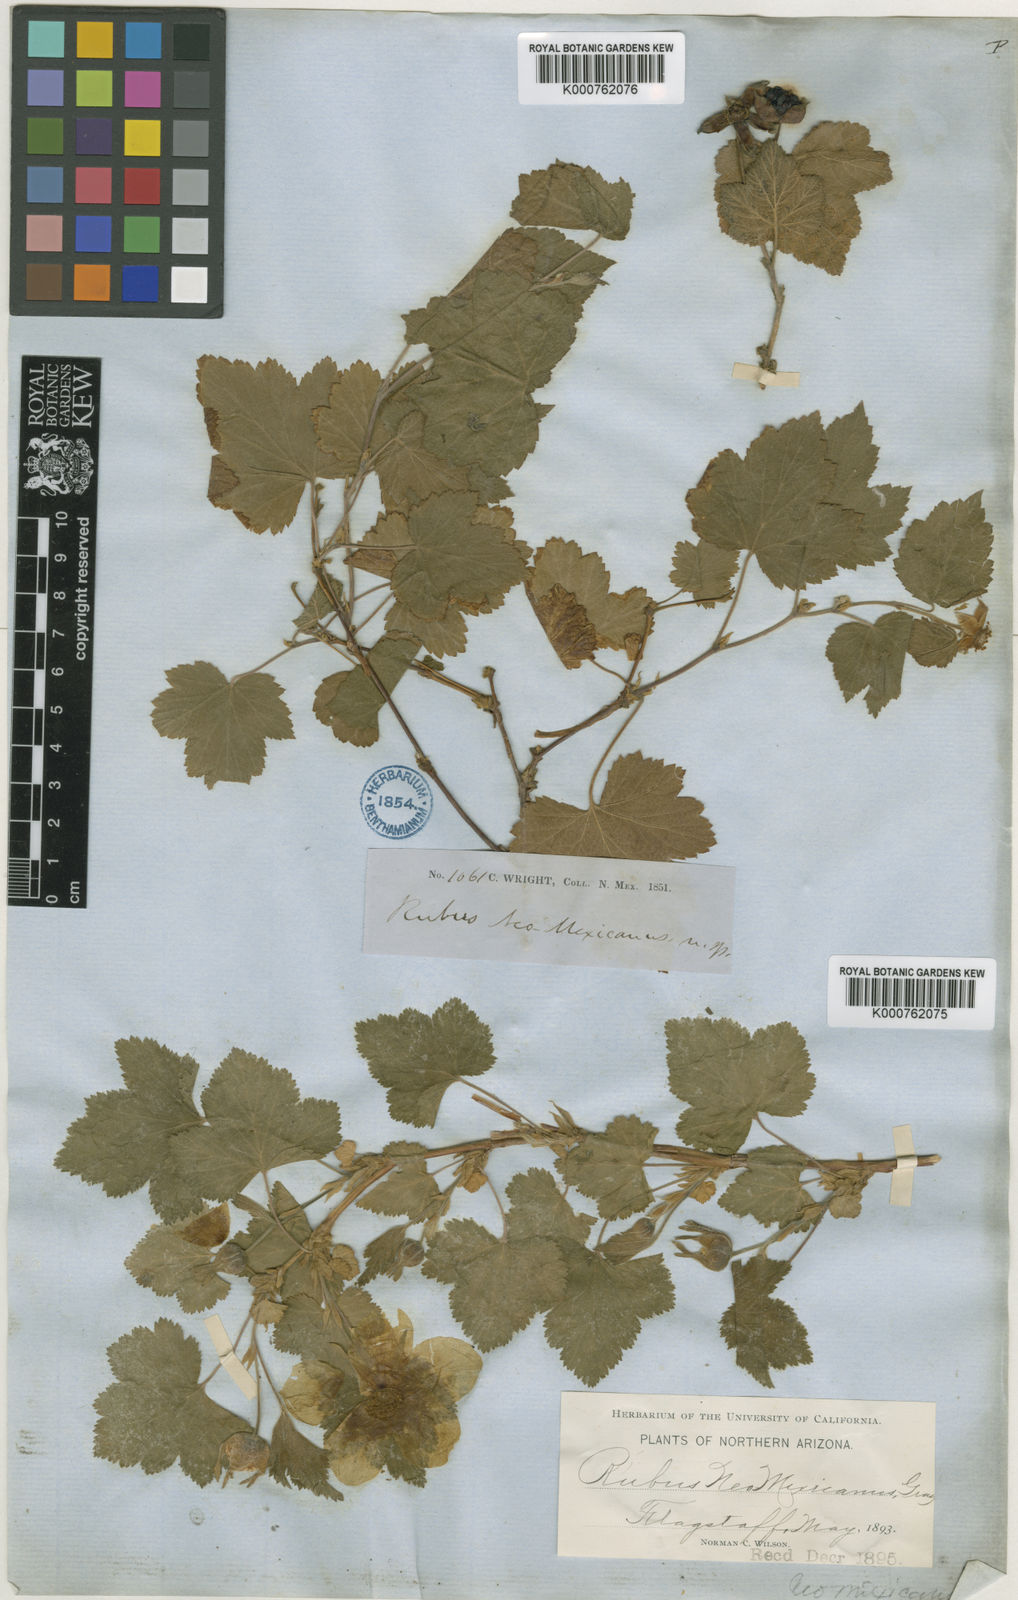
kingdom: Plantae
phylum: Tracheophyta
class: Magnoliopsida
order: Rosales
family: Rosaceae
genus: Rubus
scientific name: Rubus deliciosus
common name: Rocky mountain raspberry
